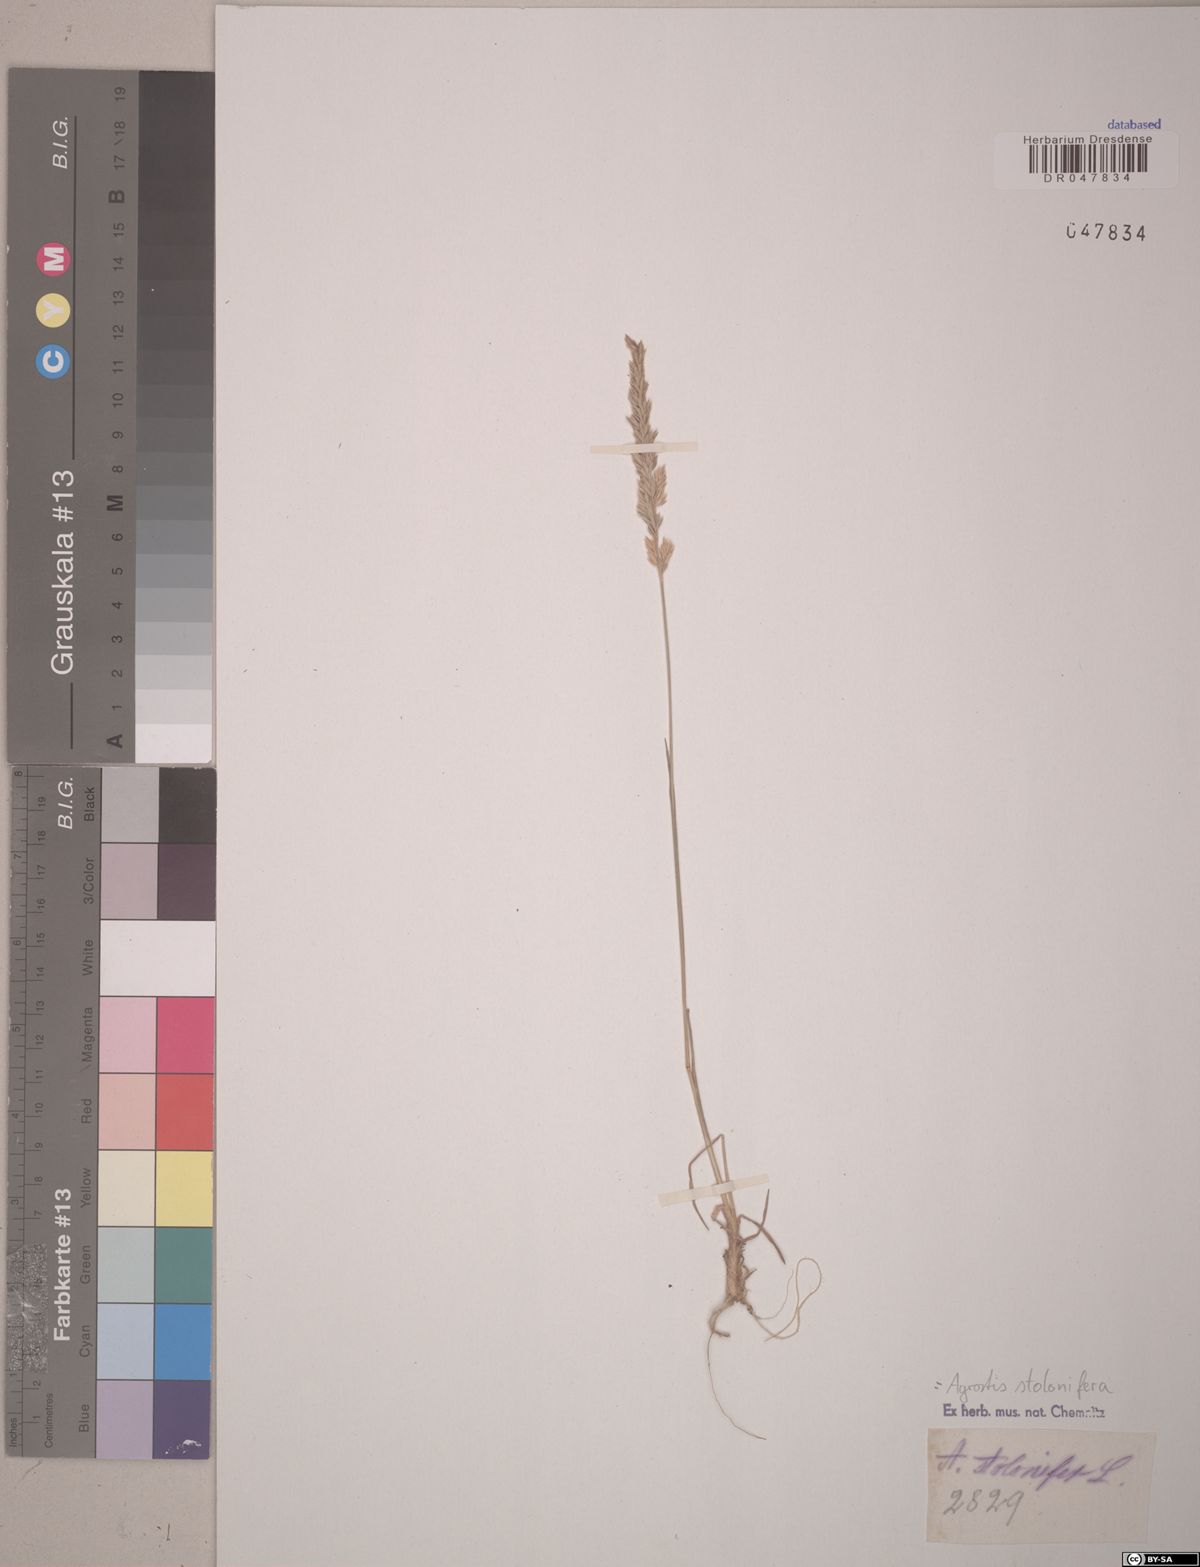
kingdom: Plantae
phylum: Tracheophyta
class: Liliopsida
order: Poales
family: Poaceae
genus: Agrostis
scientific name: Agrostis stolonifera
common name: Creeping bentgrass
